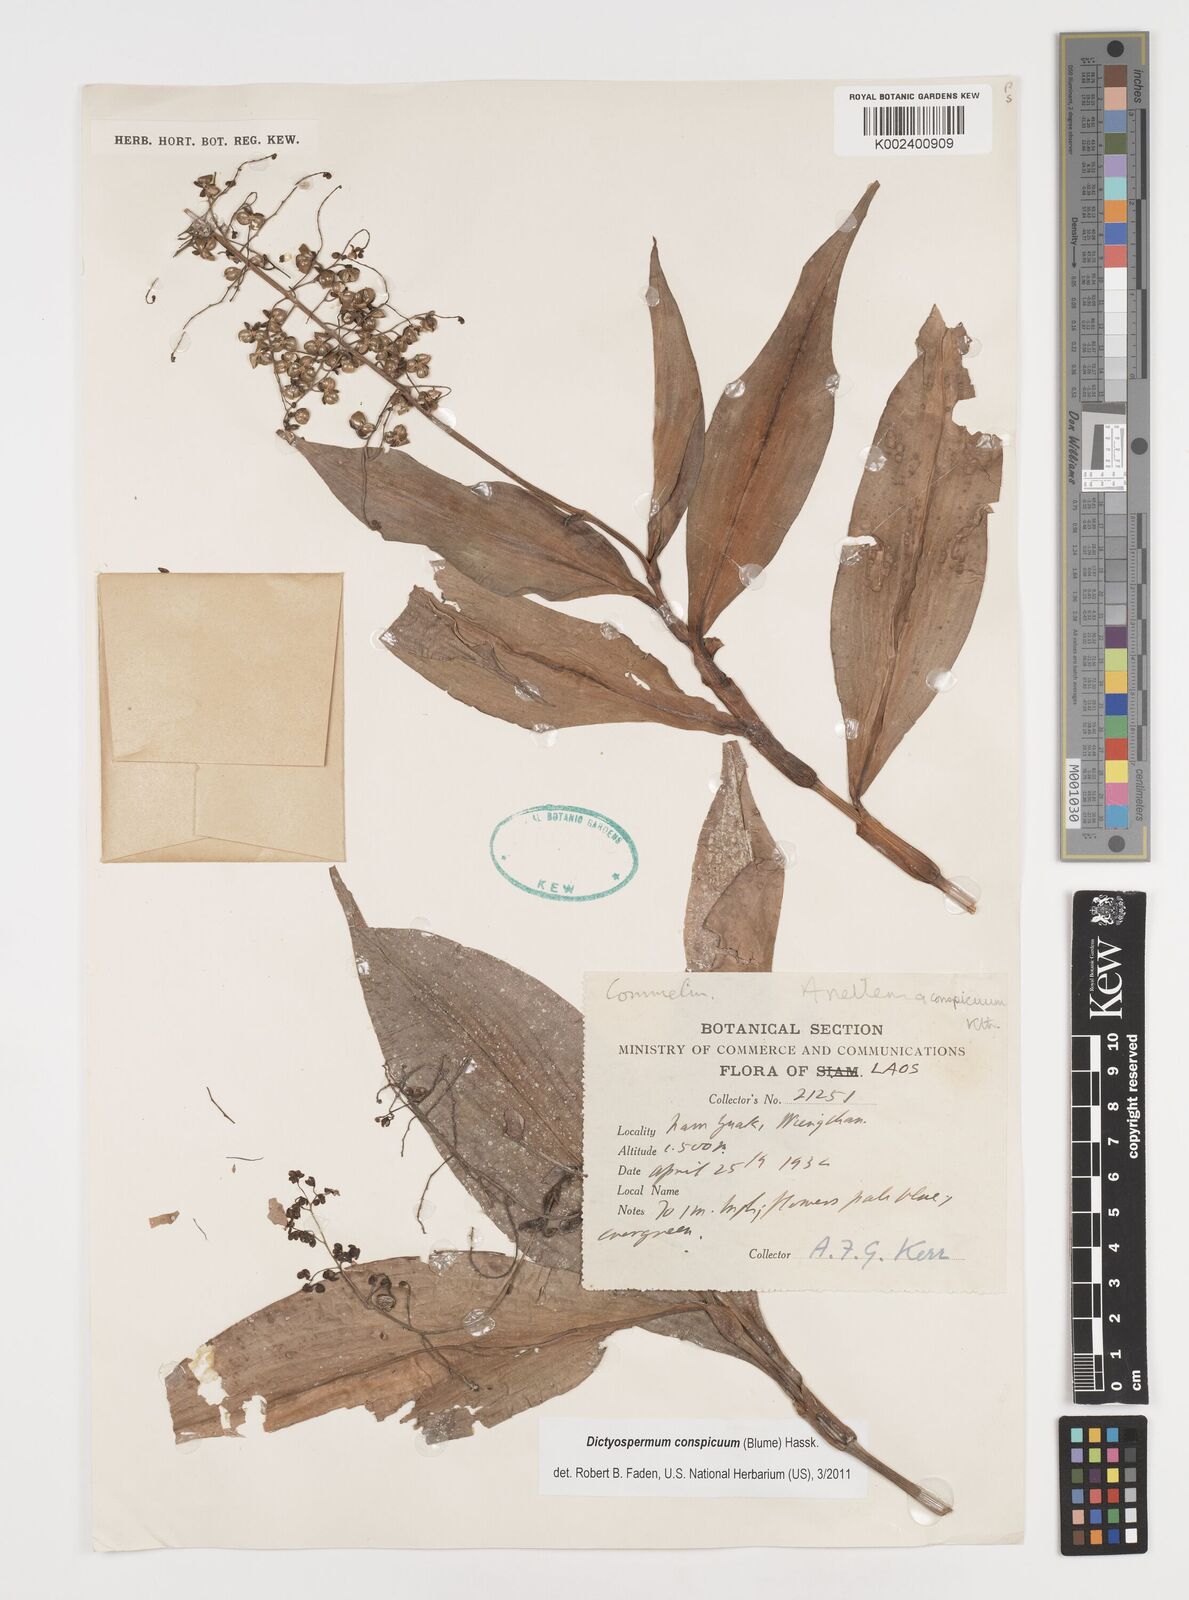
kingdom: Plantae
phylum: Tracheophyta
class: Liliopsida
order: Commelinales
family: Commelinaceae
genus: Dictyospermum
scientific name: Dictyospermum conspicuum
